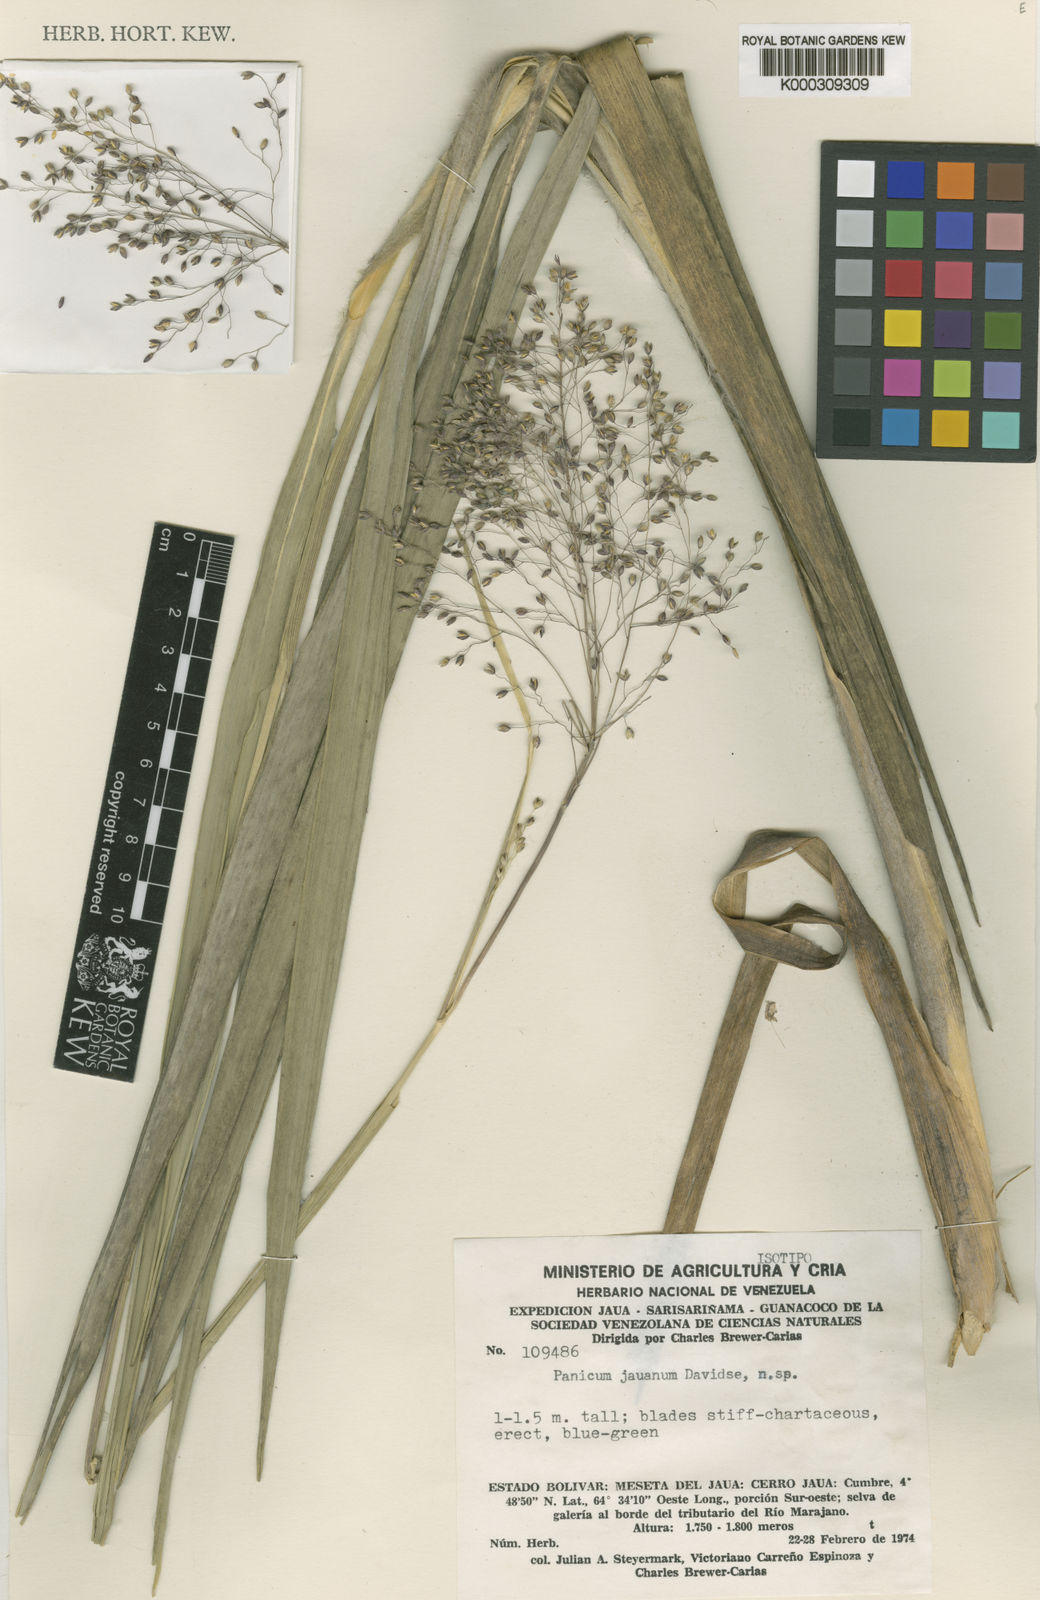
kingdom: Plantae
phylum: Tracheophyta
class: Liliopsida
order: Poales
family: Poaceae
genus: Apochloa
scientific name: Apochloa jauana
